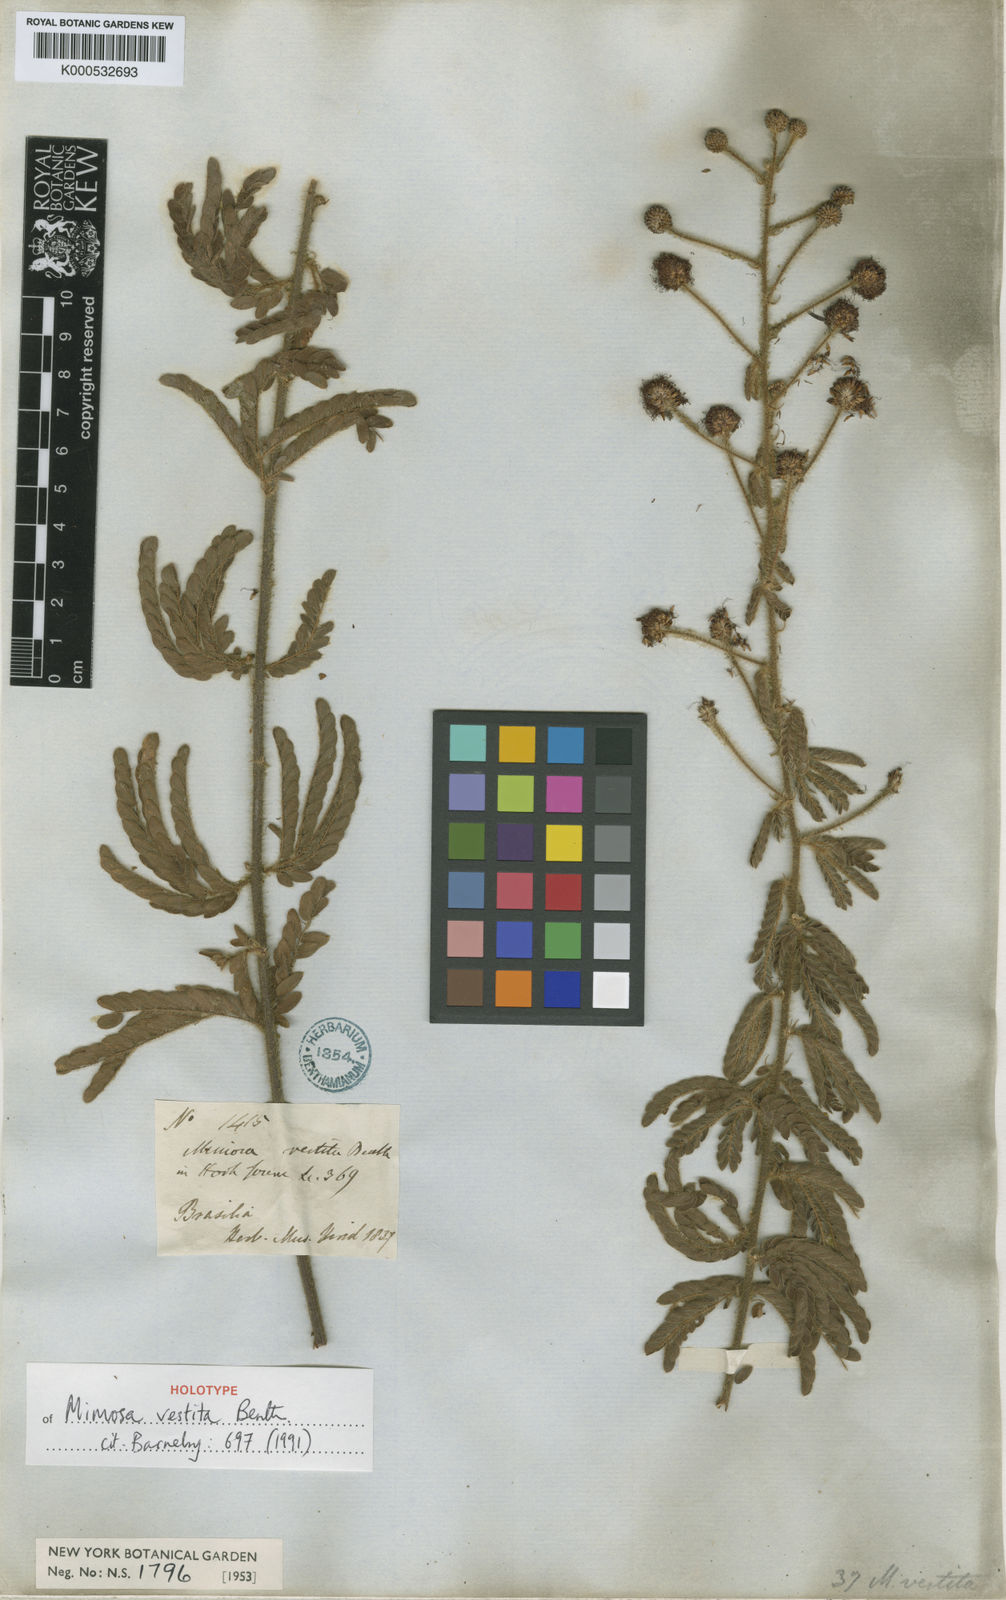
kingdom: Plantae
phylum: Tracheophyta
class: Magnoliopsida
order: Fabales
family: Fabaceae
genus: Mimosa
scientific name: Mimosa vestita
